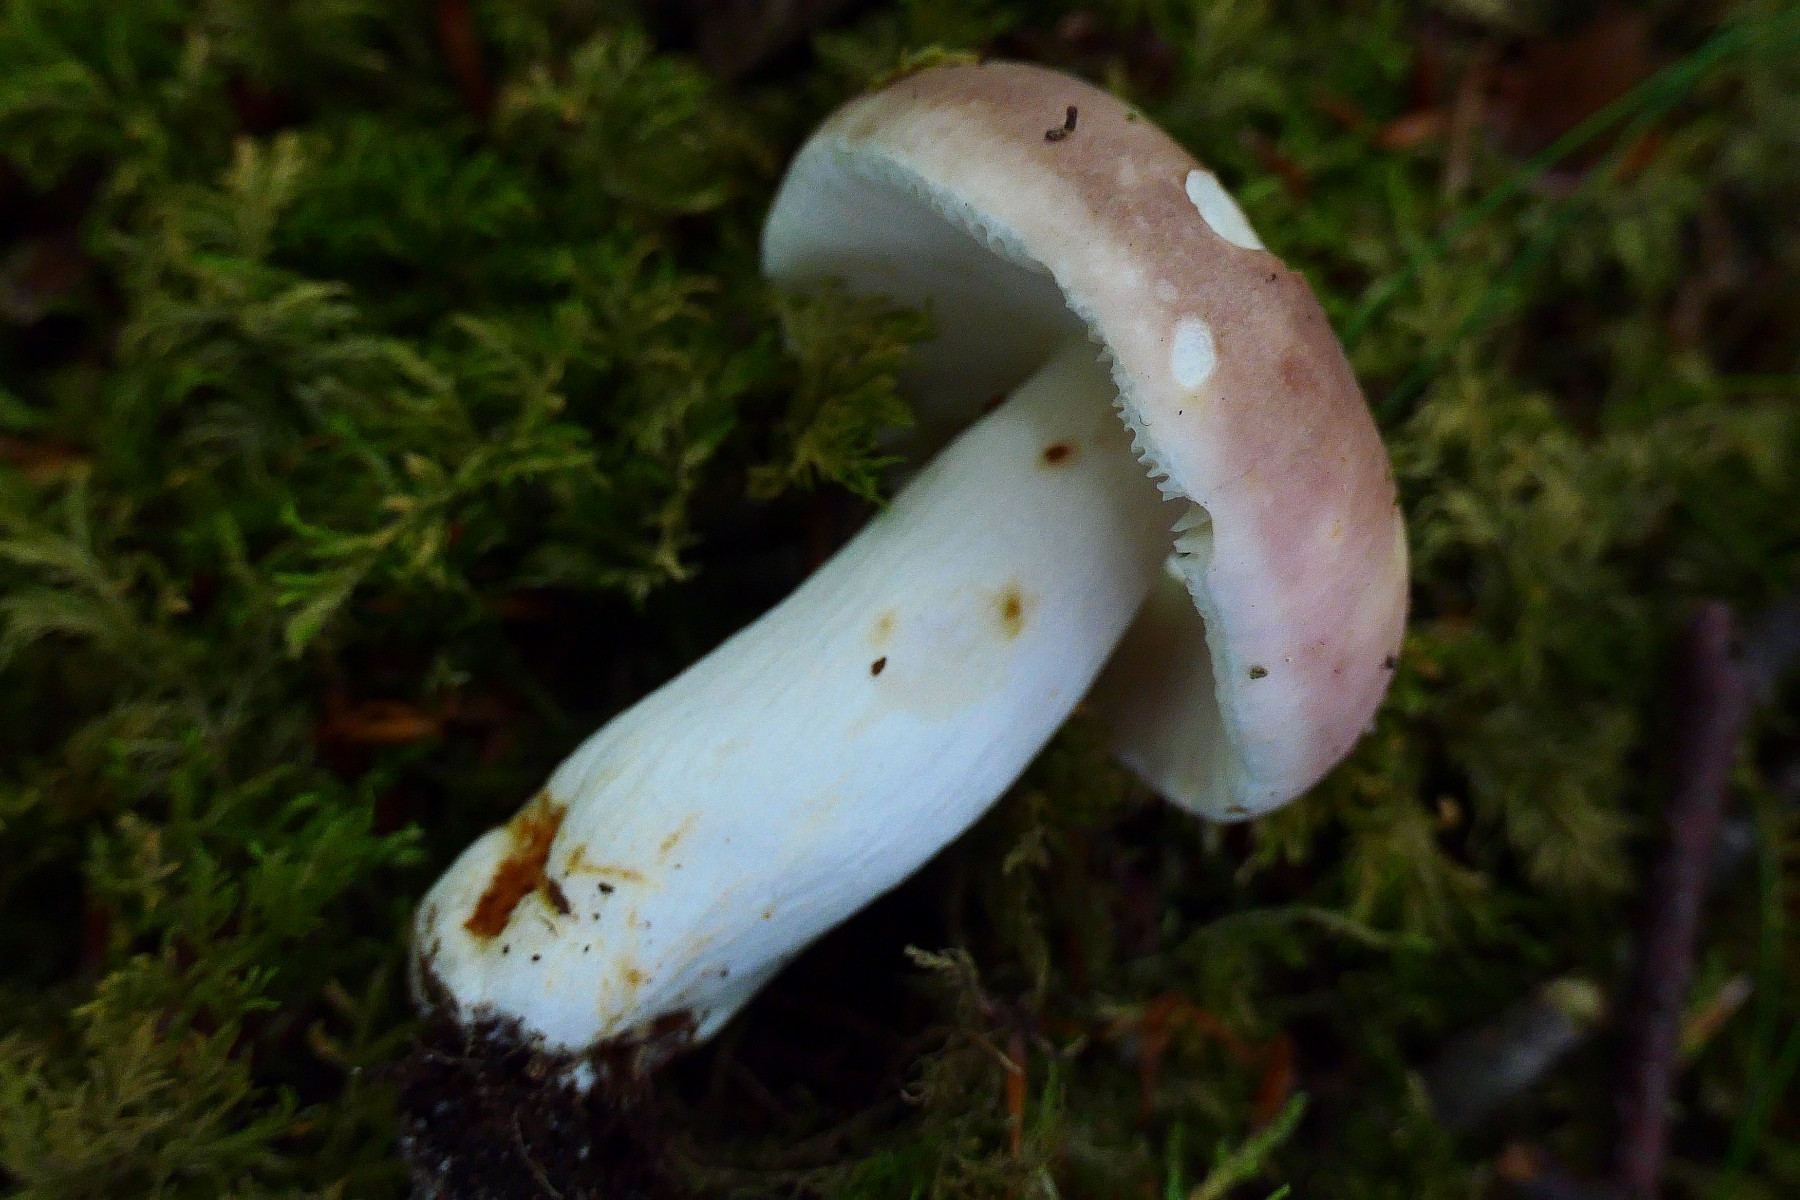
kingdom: Fungi
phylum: Basidiomycota
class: Agaricomycetes
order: Russulales
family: Russulaceae
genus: Russula
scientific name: Russula vesca
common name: spiselig skørhat
